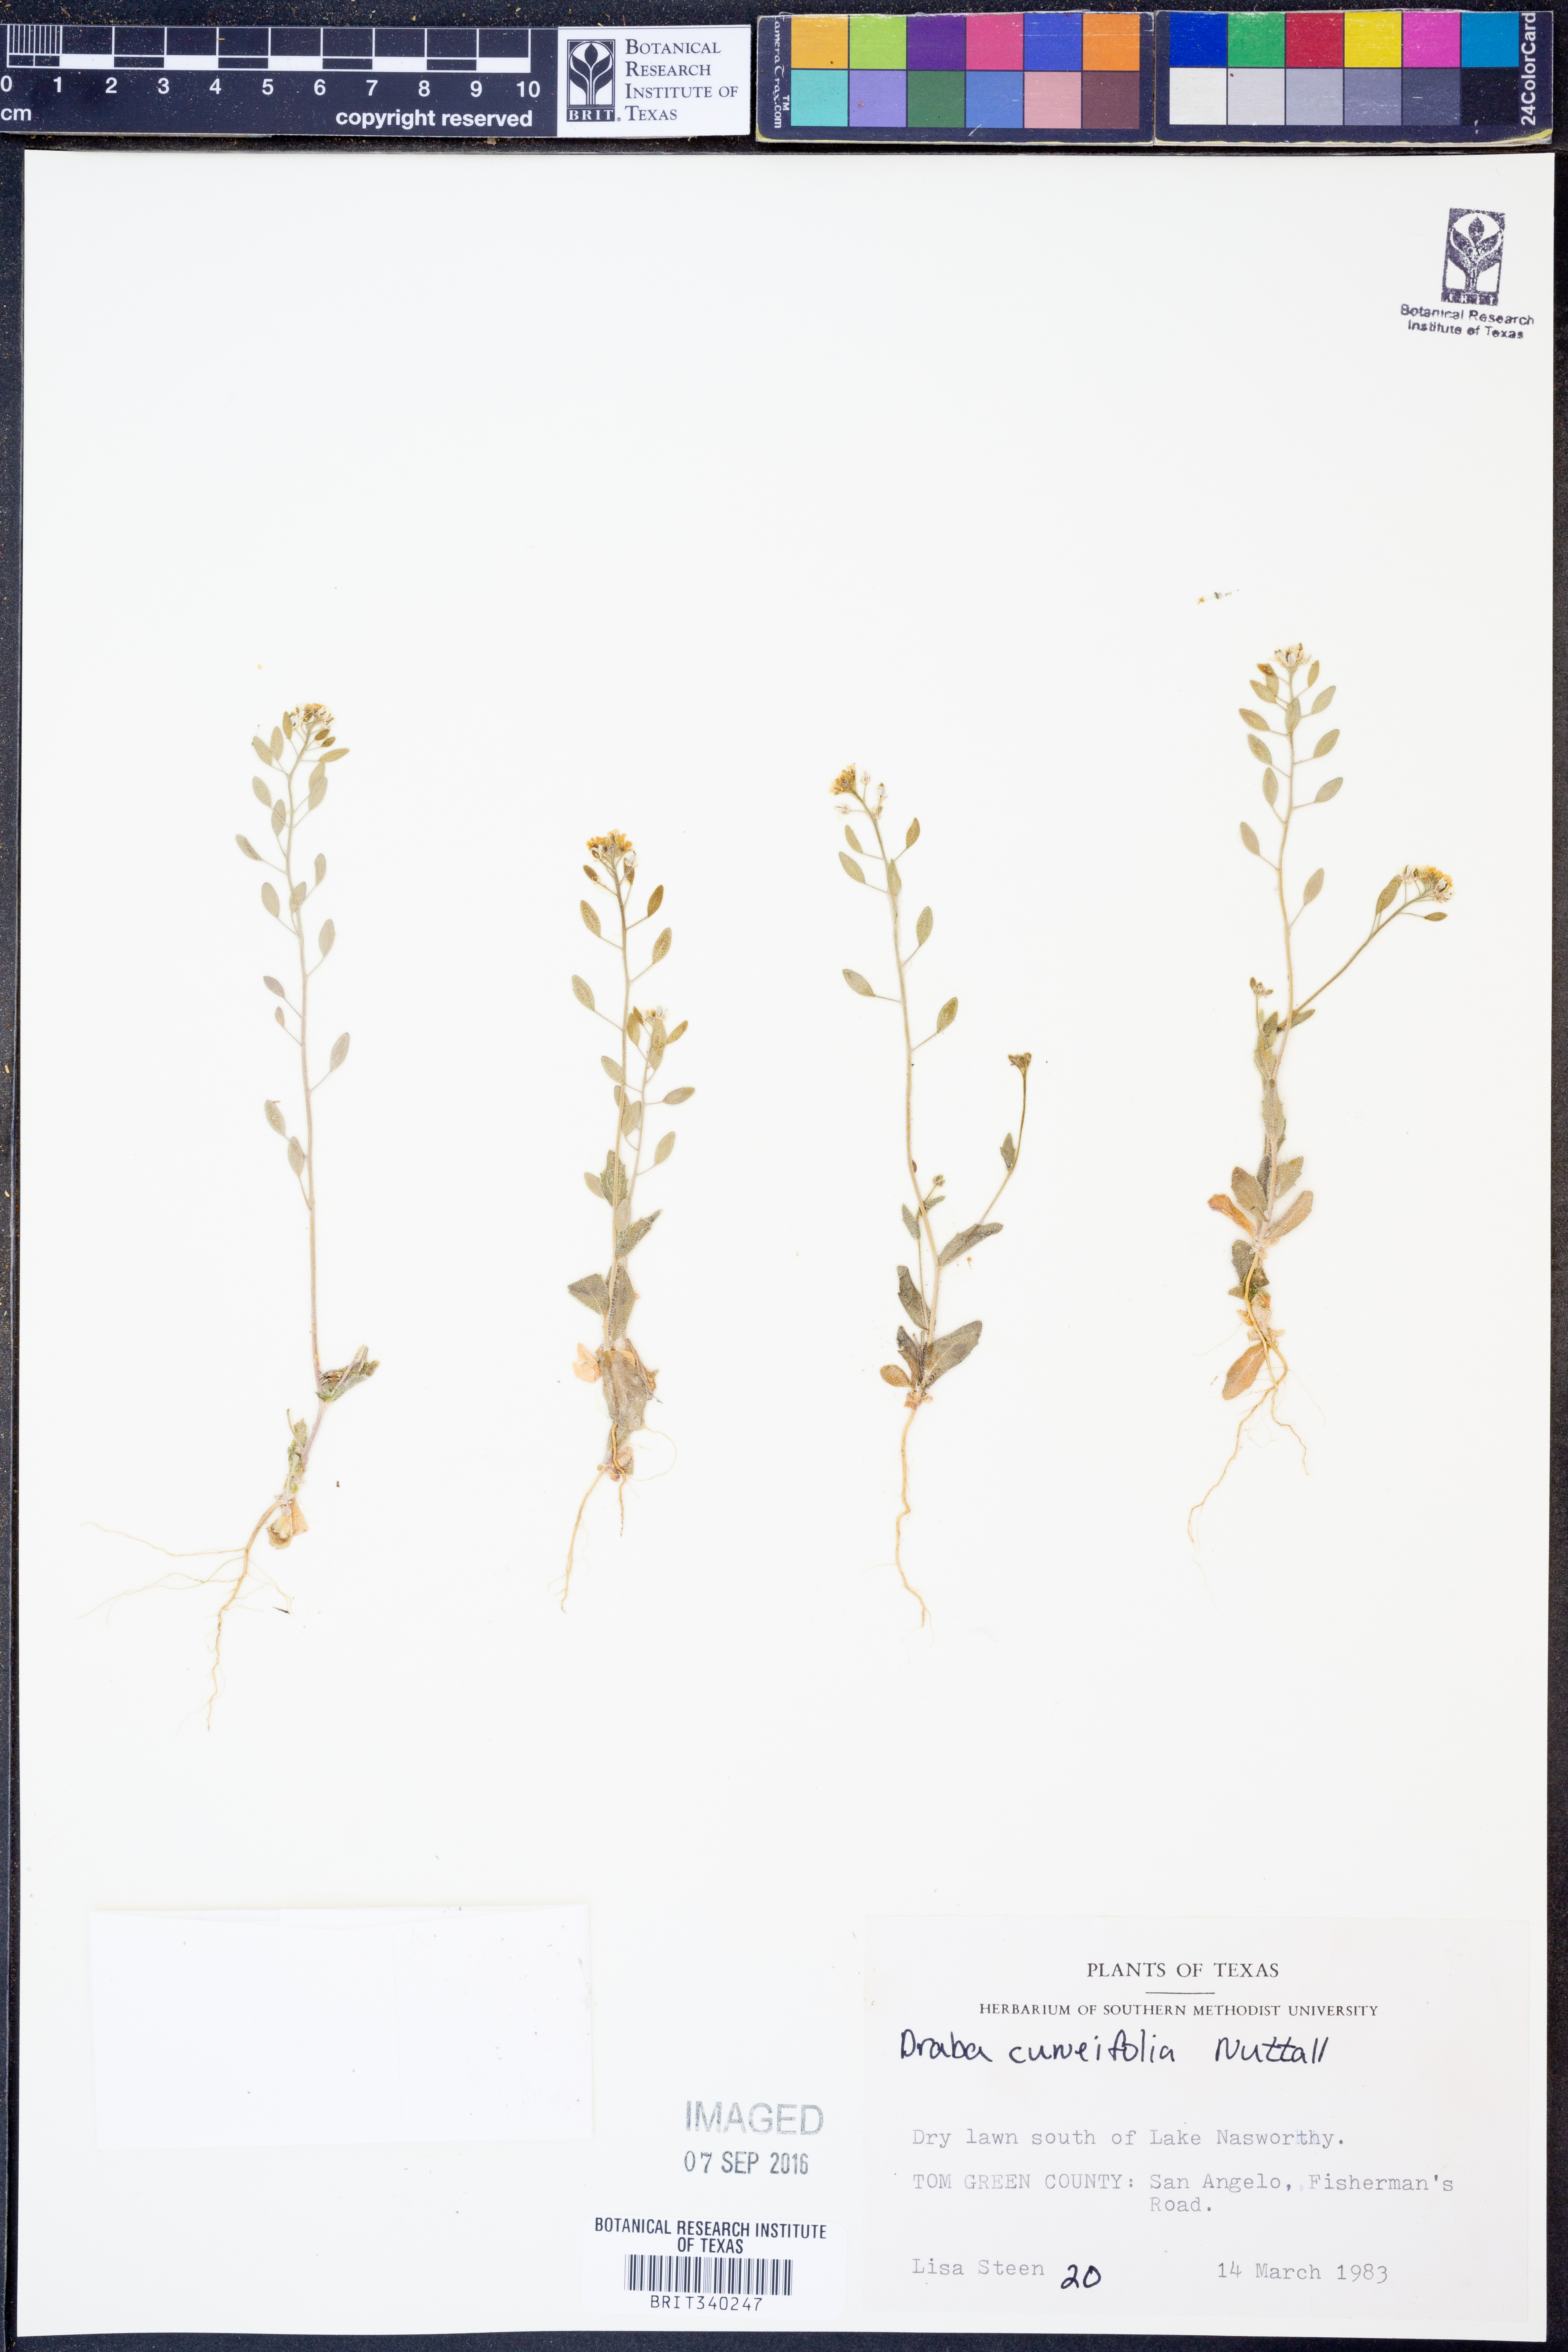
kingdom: Plantae
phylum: Tracheophyta
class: Magnoliopsida
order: Brassicales
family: Brassicaceae
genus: Tomostima
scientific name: Tomostima cuneifolia
